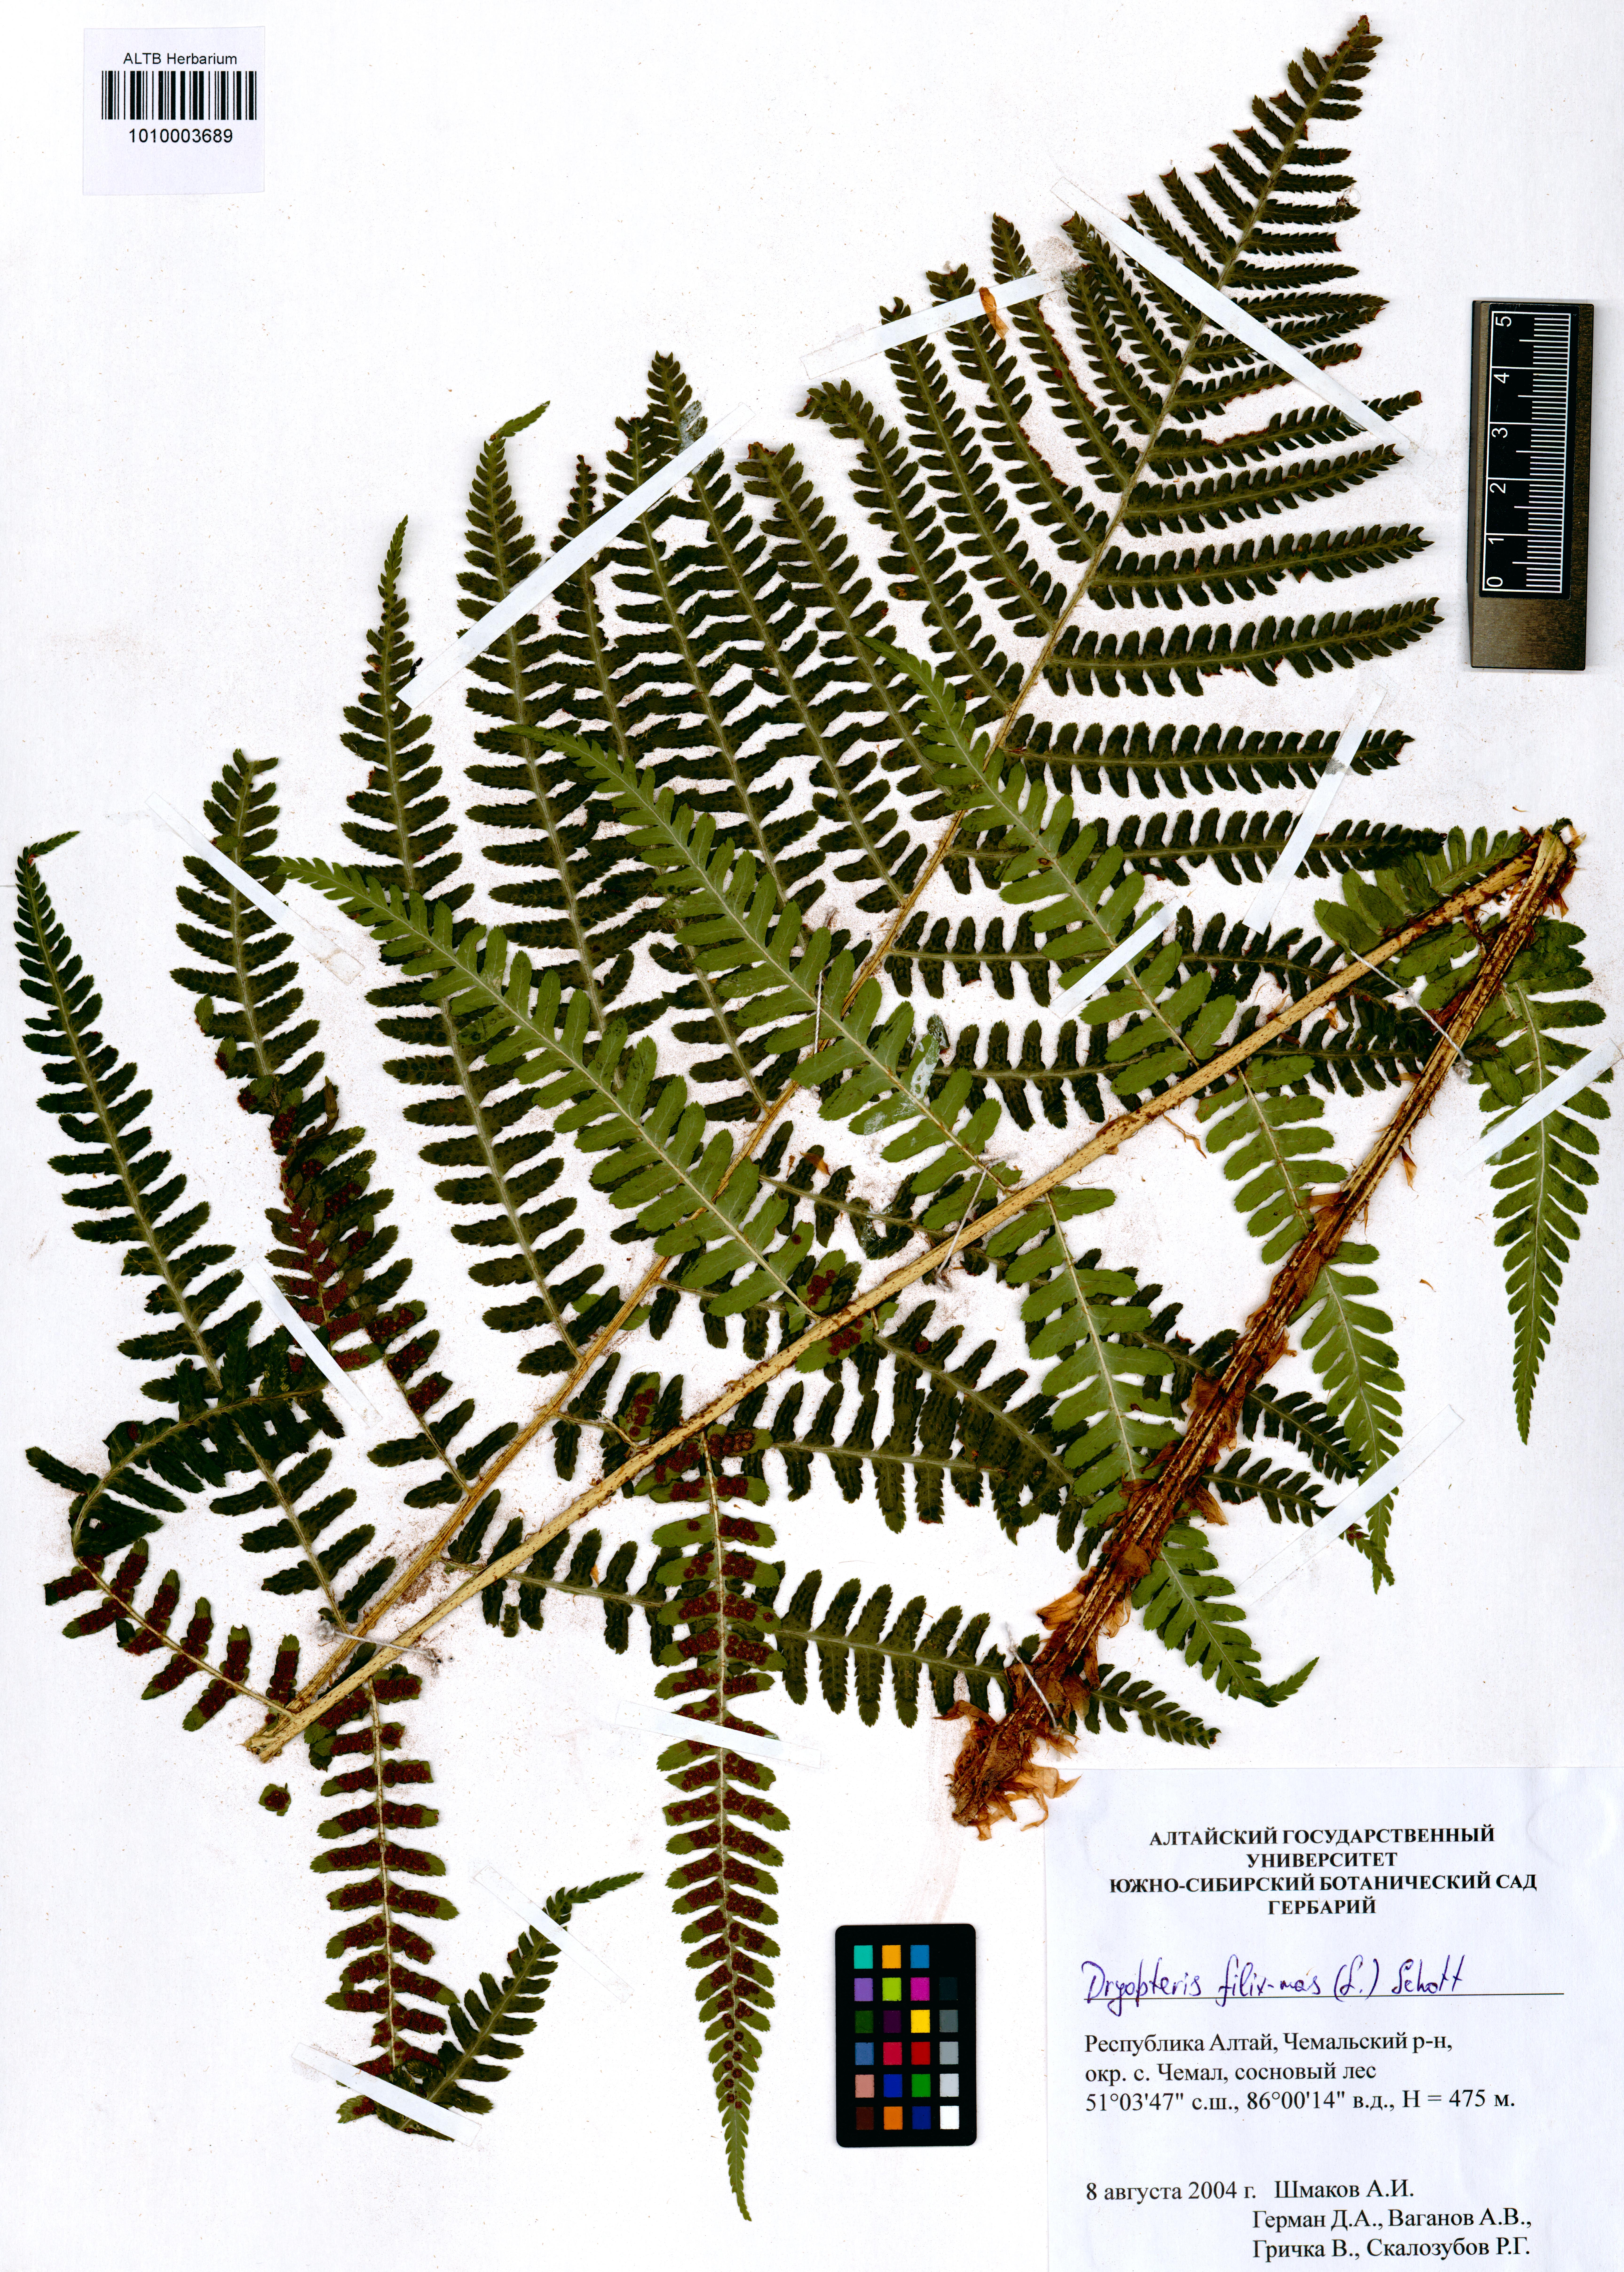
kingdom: Plantae
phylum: Tracheophyta
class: Polypodiopsida
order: Polypodiales
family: Dryopteridaceae
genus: Dryopteris
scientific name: Dryopteris filix-mas
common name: Male fern
